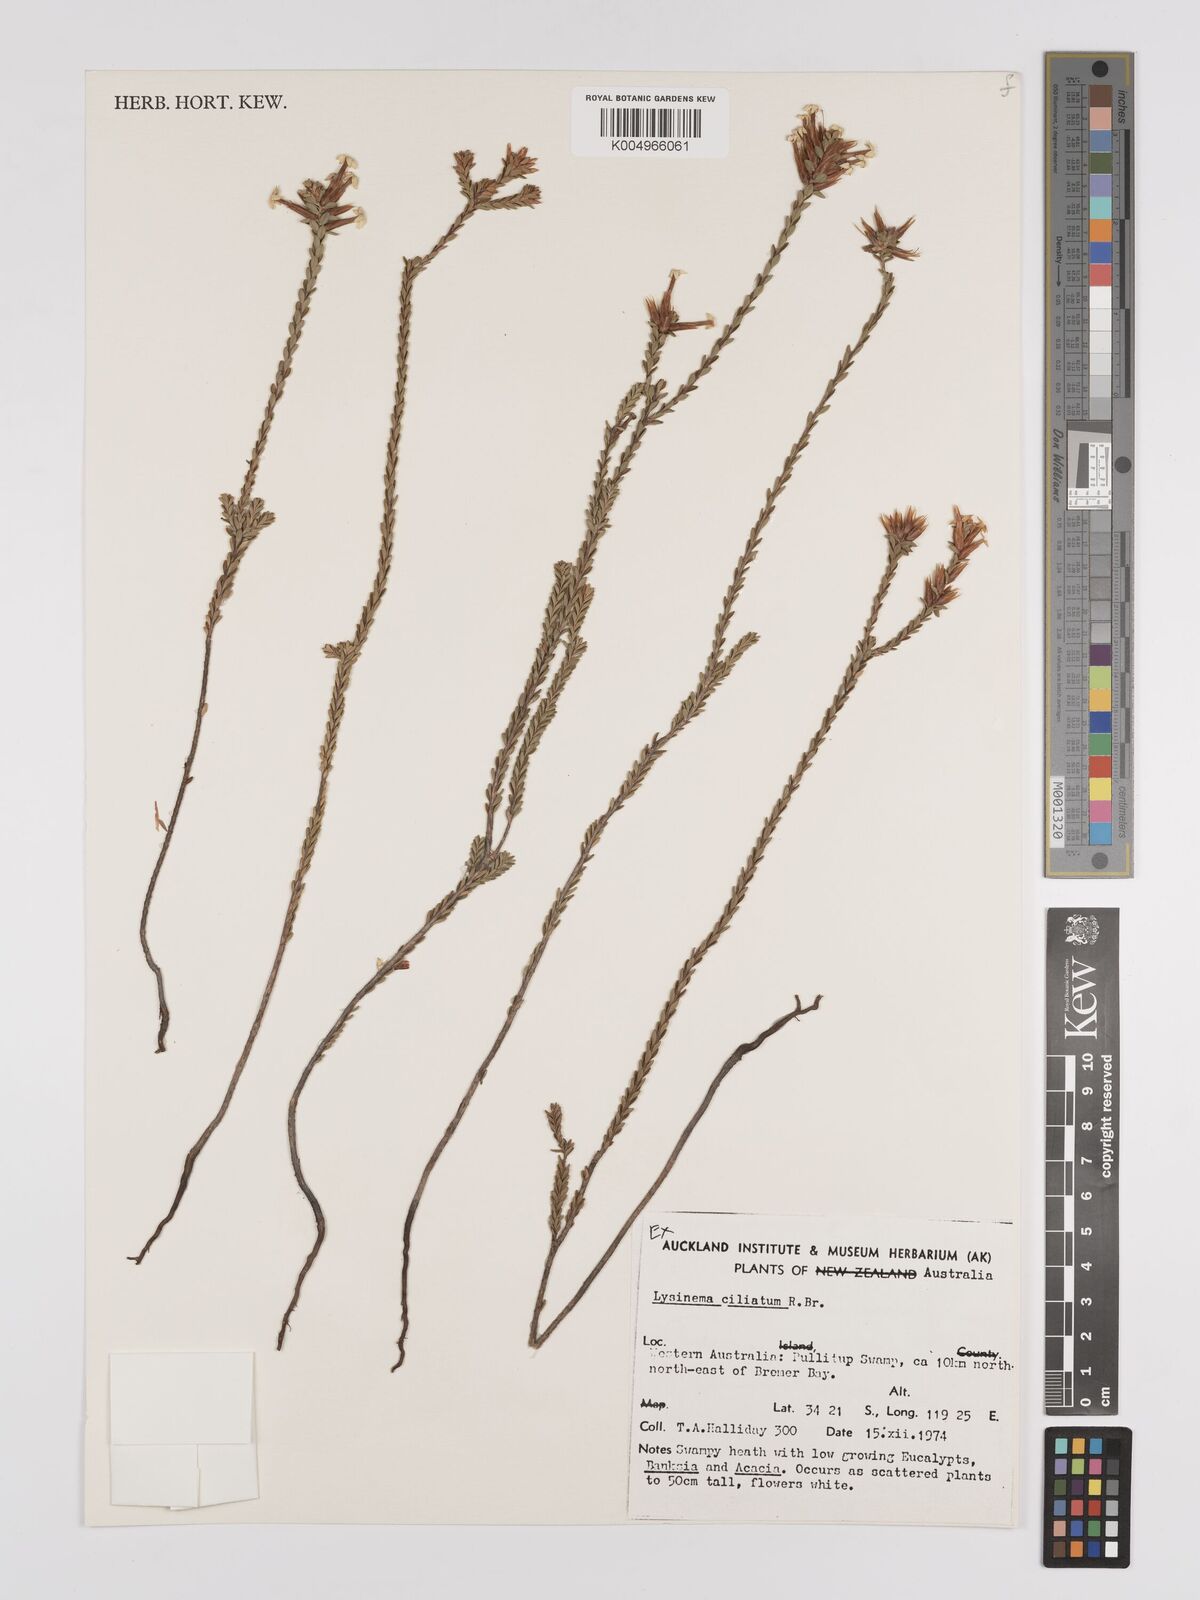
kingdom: Plantae
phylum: Tracheophyta
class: Magnoliopsida
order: Ericales
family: Ericaceae
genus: Lysinema
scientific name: Lysinema ciliatum
